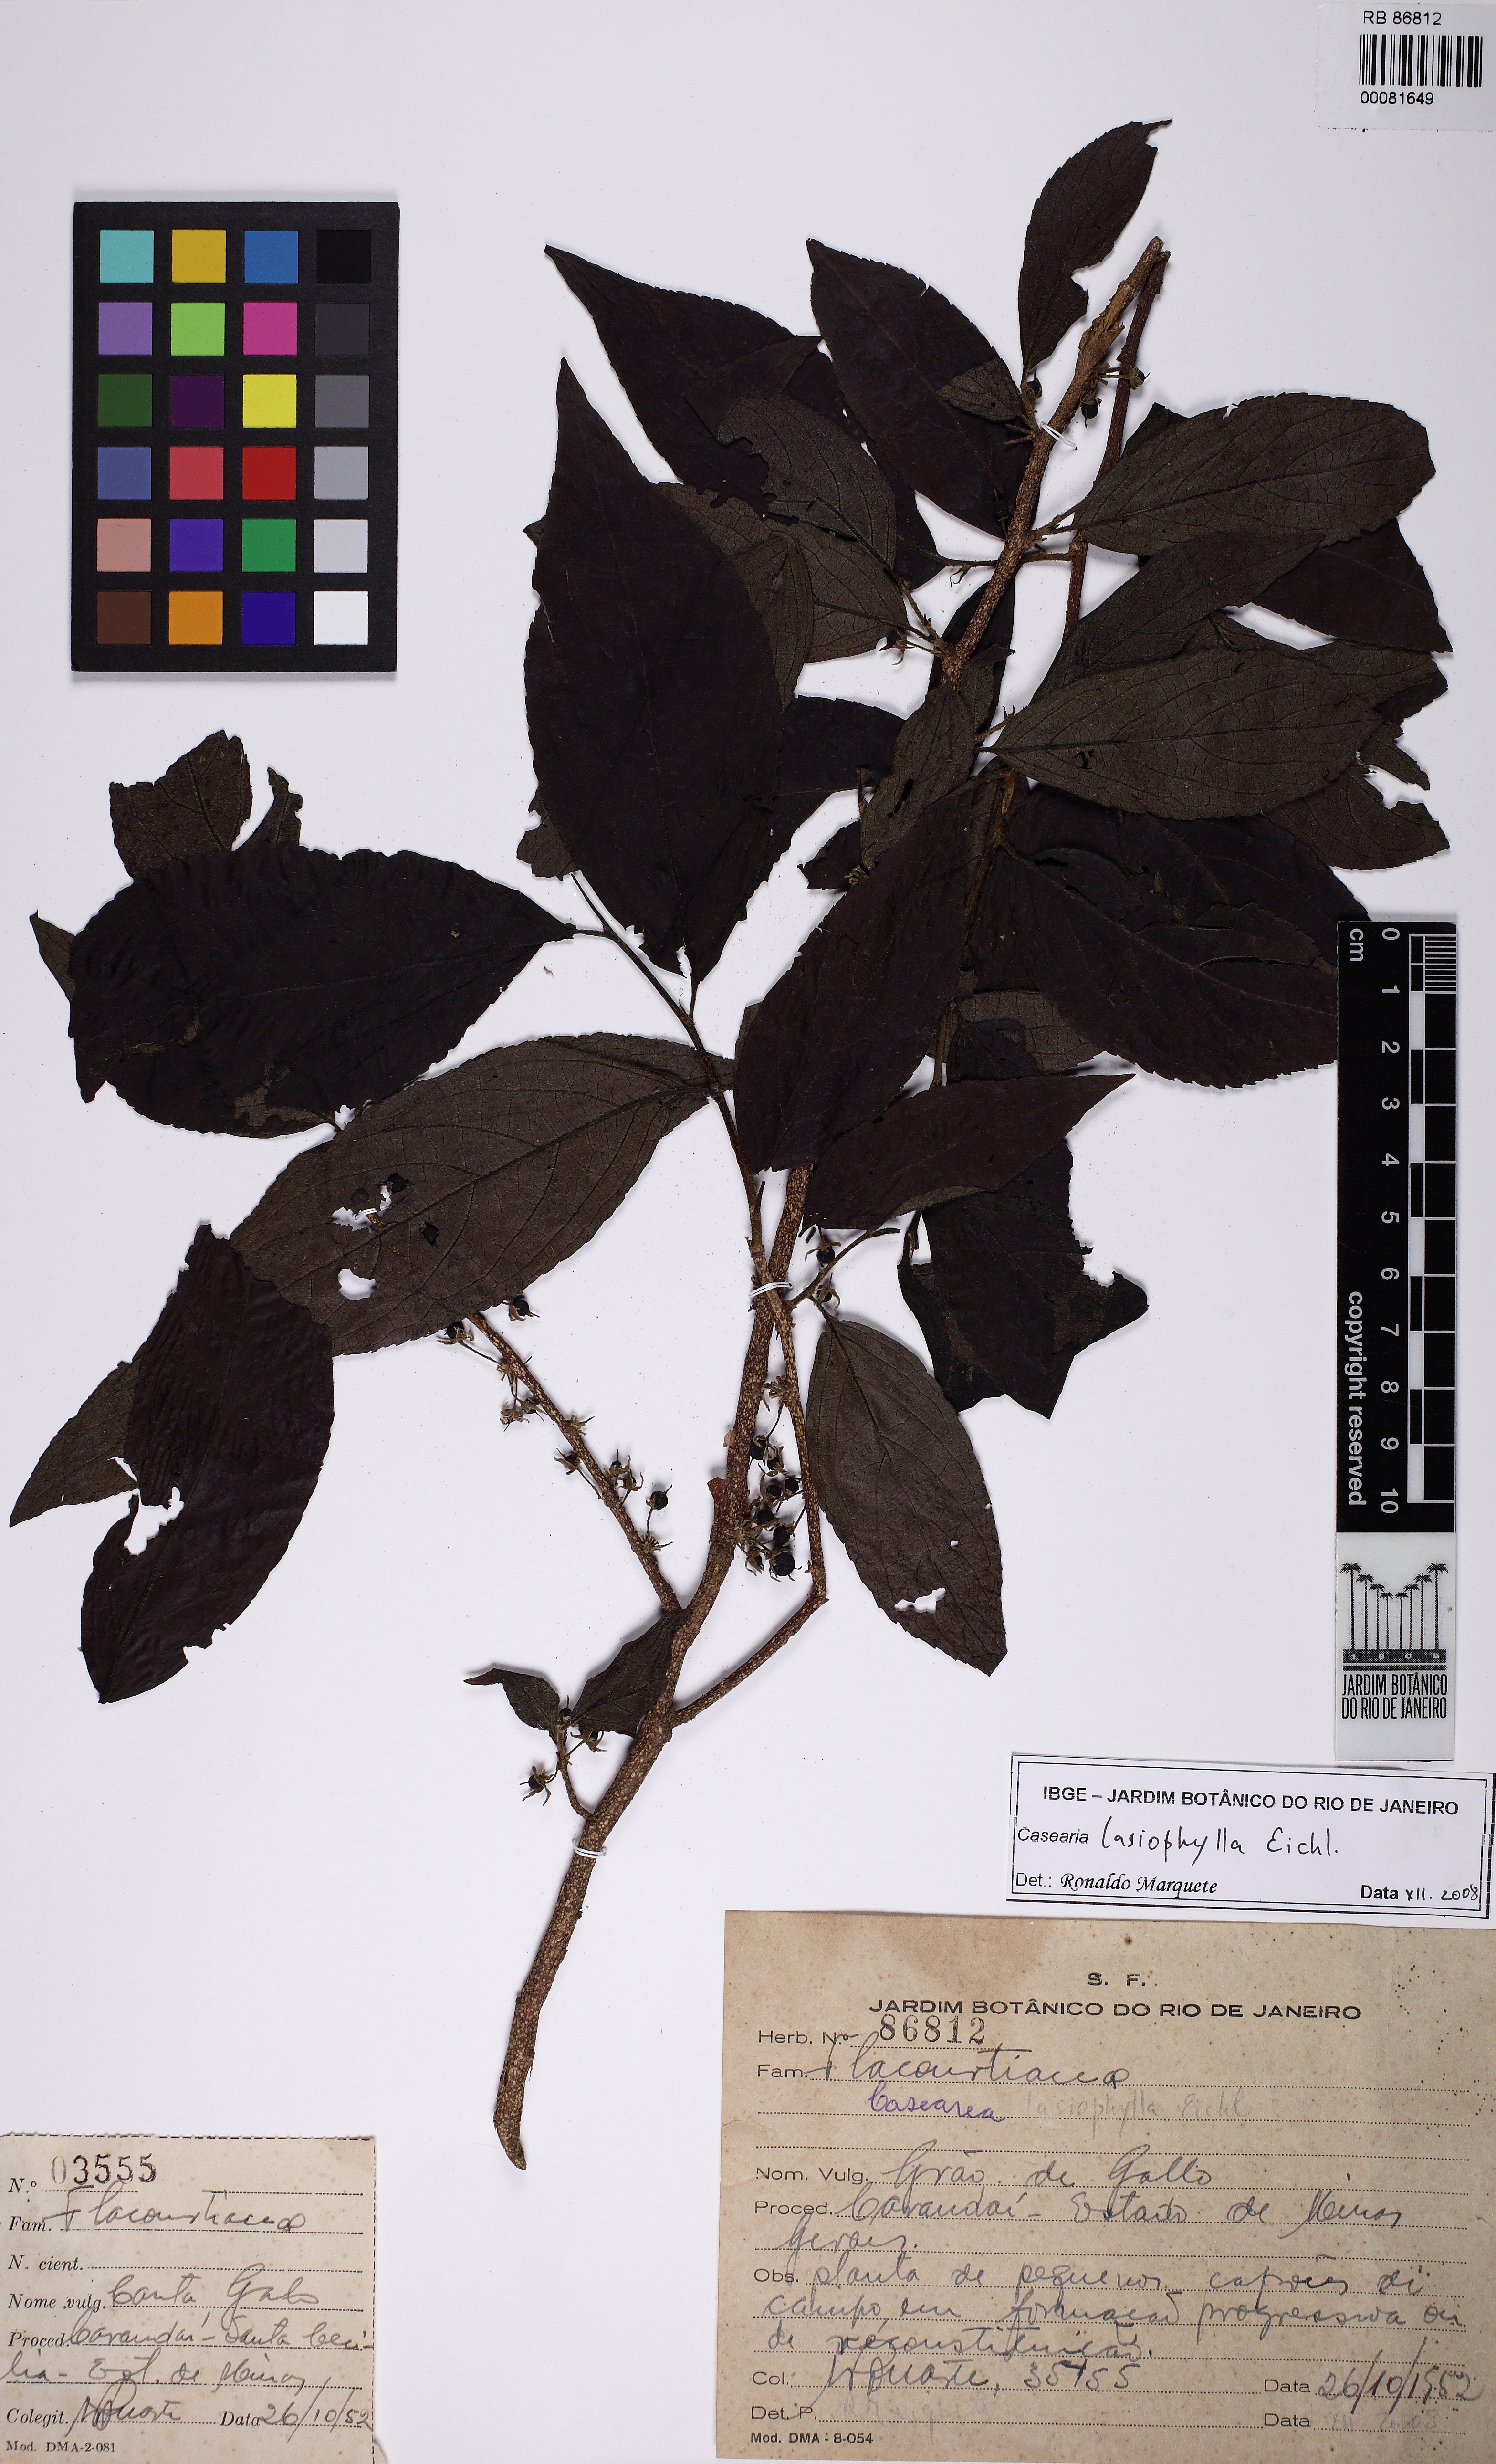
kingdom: Plantae
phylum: Tracheophyta
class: Magnoliopsida
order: Malpighiales
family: Salicaceae
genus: Casearia
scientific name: Casearia lasiophylla
